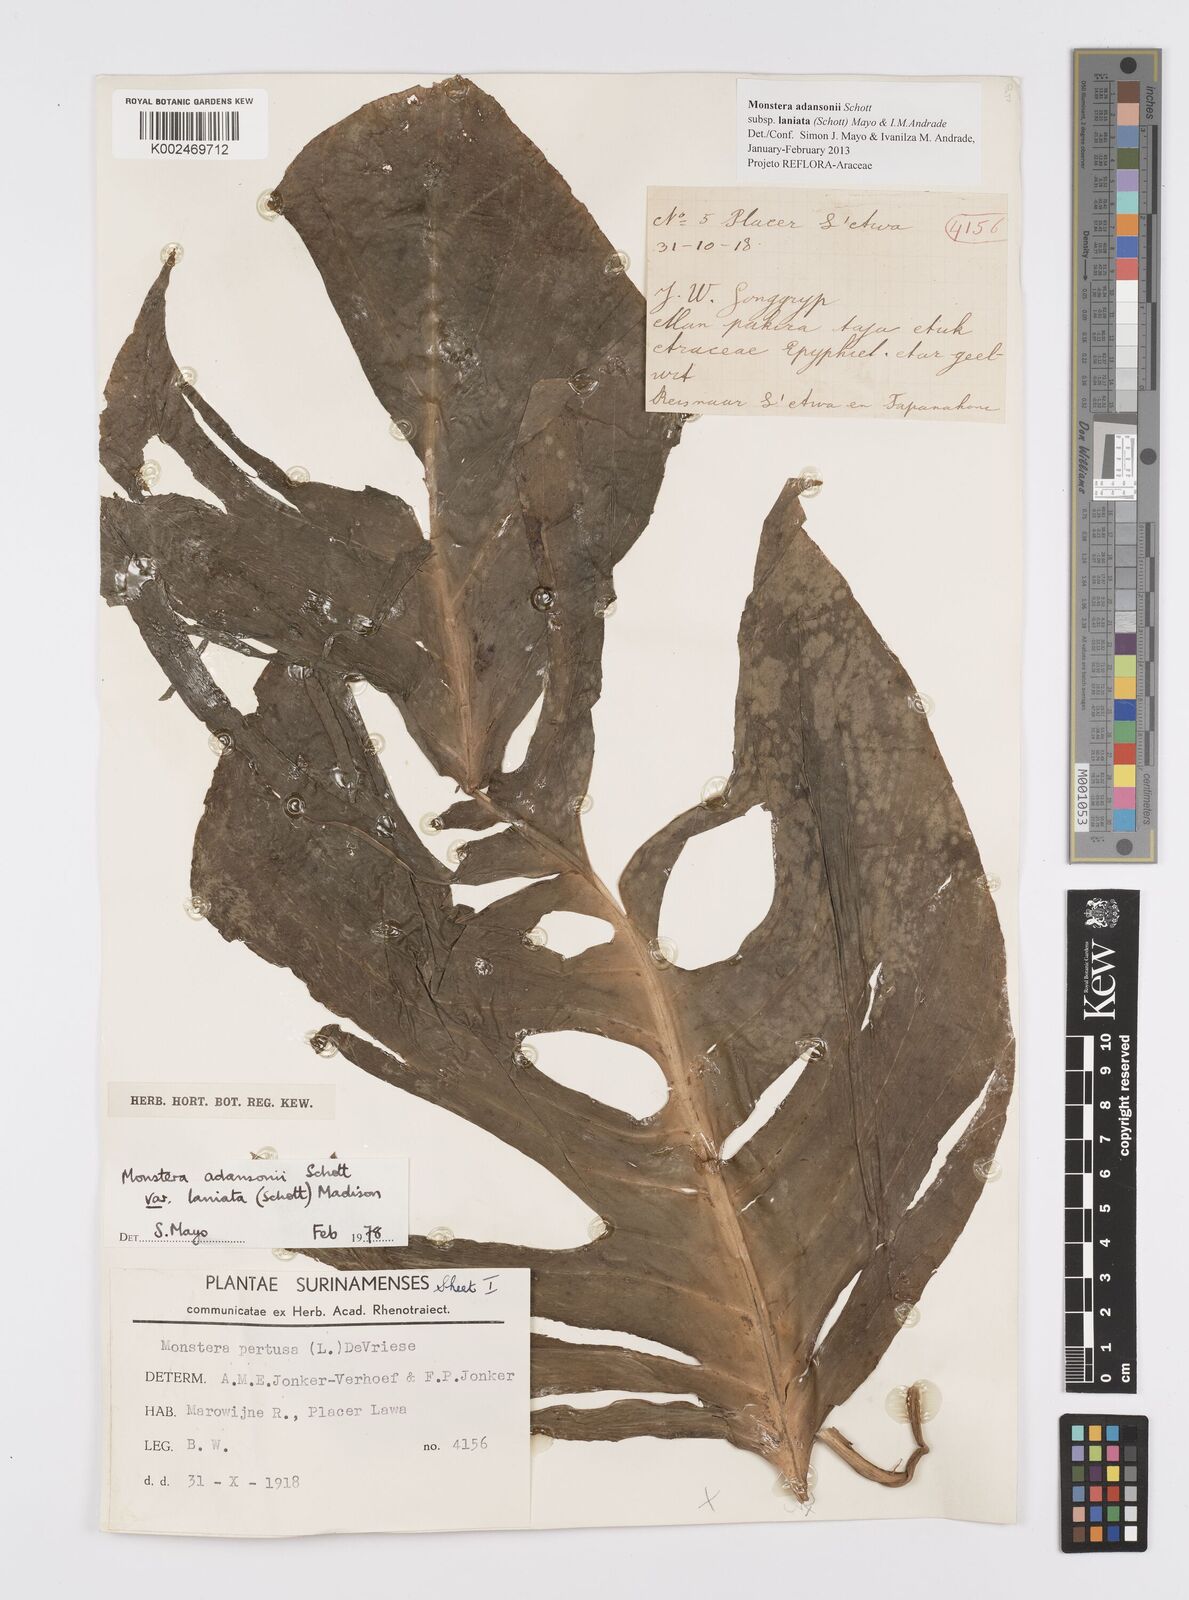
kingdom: Plantae
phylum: Tracheophyta
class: Liliopsida
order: Alismatales
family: Araceae
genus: Monstera
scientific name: Monstera adansonii
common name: Tarovine
